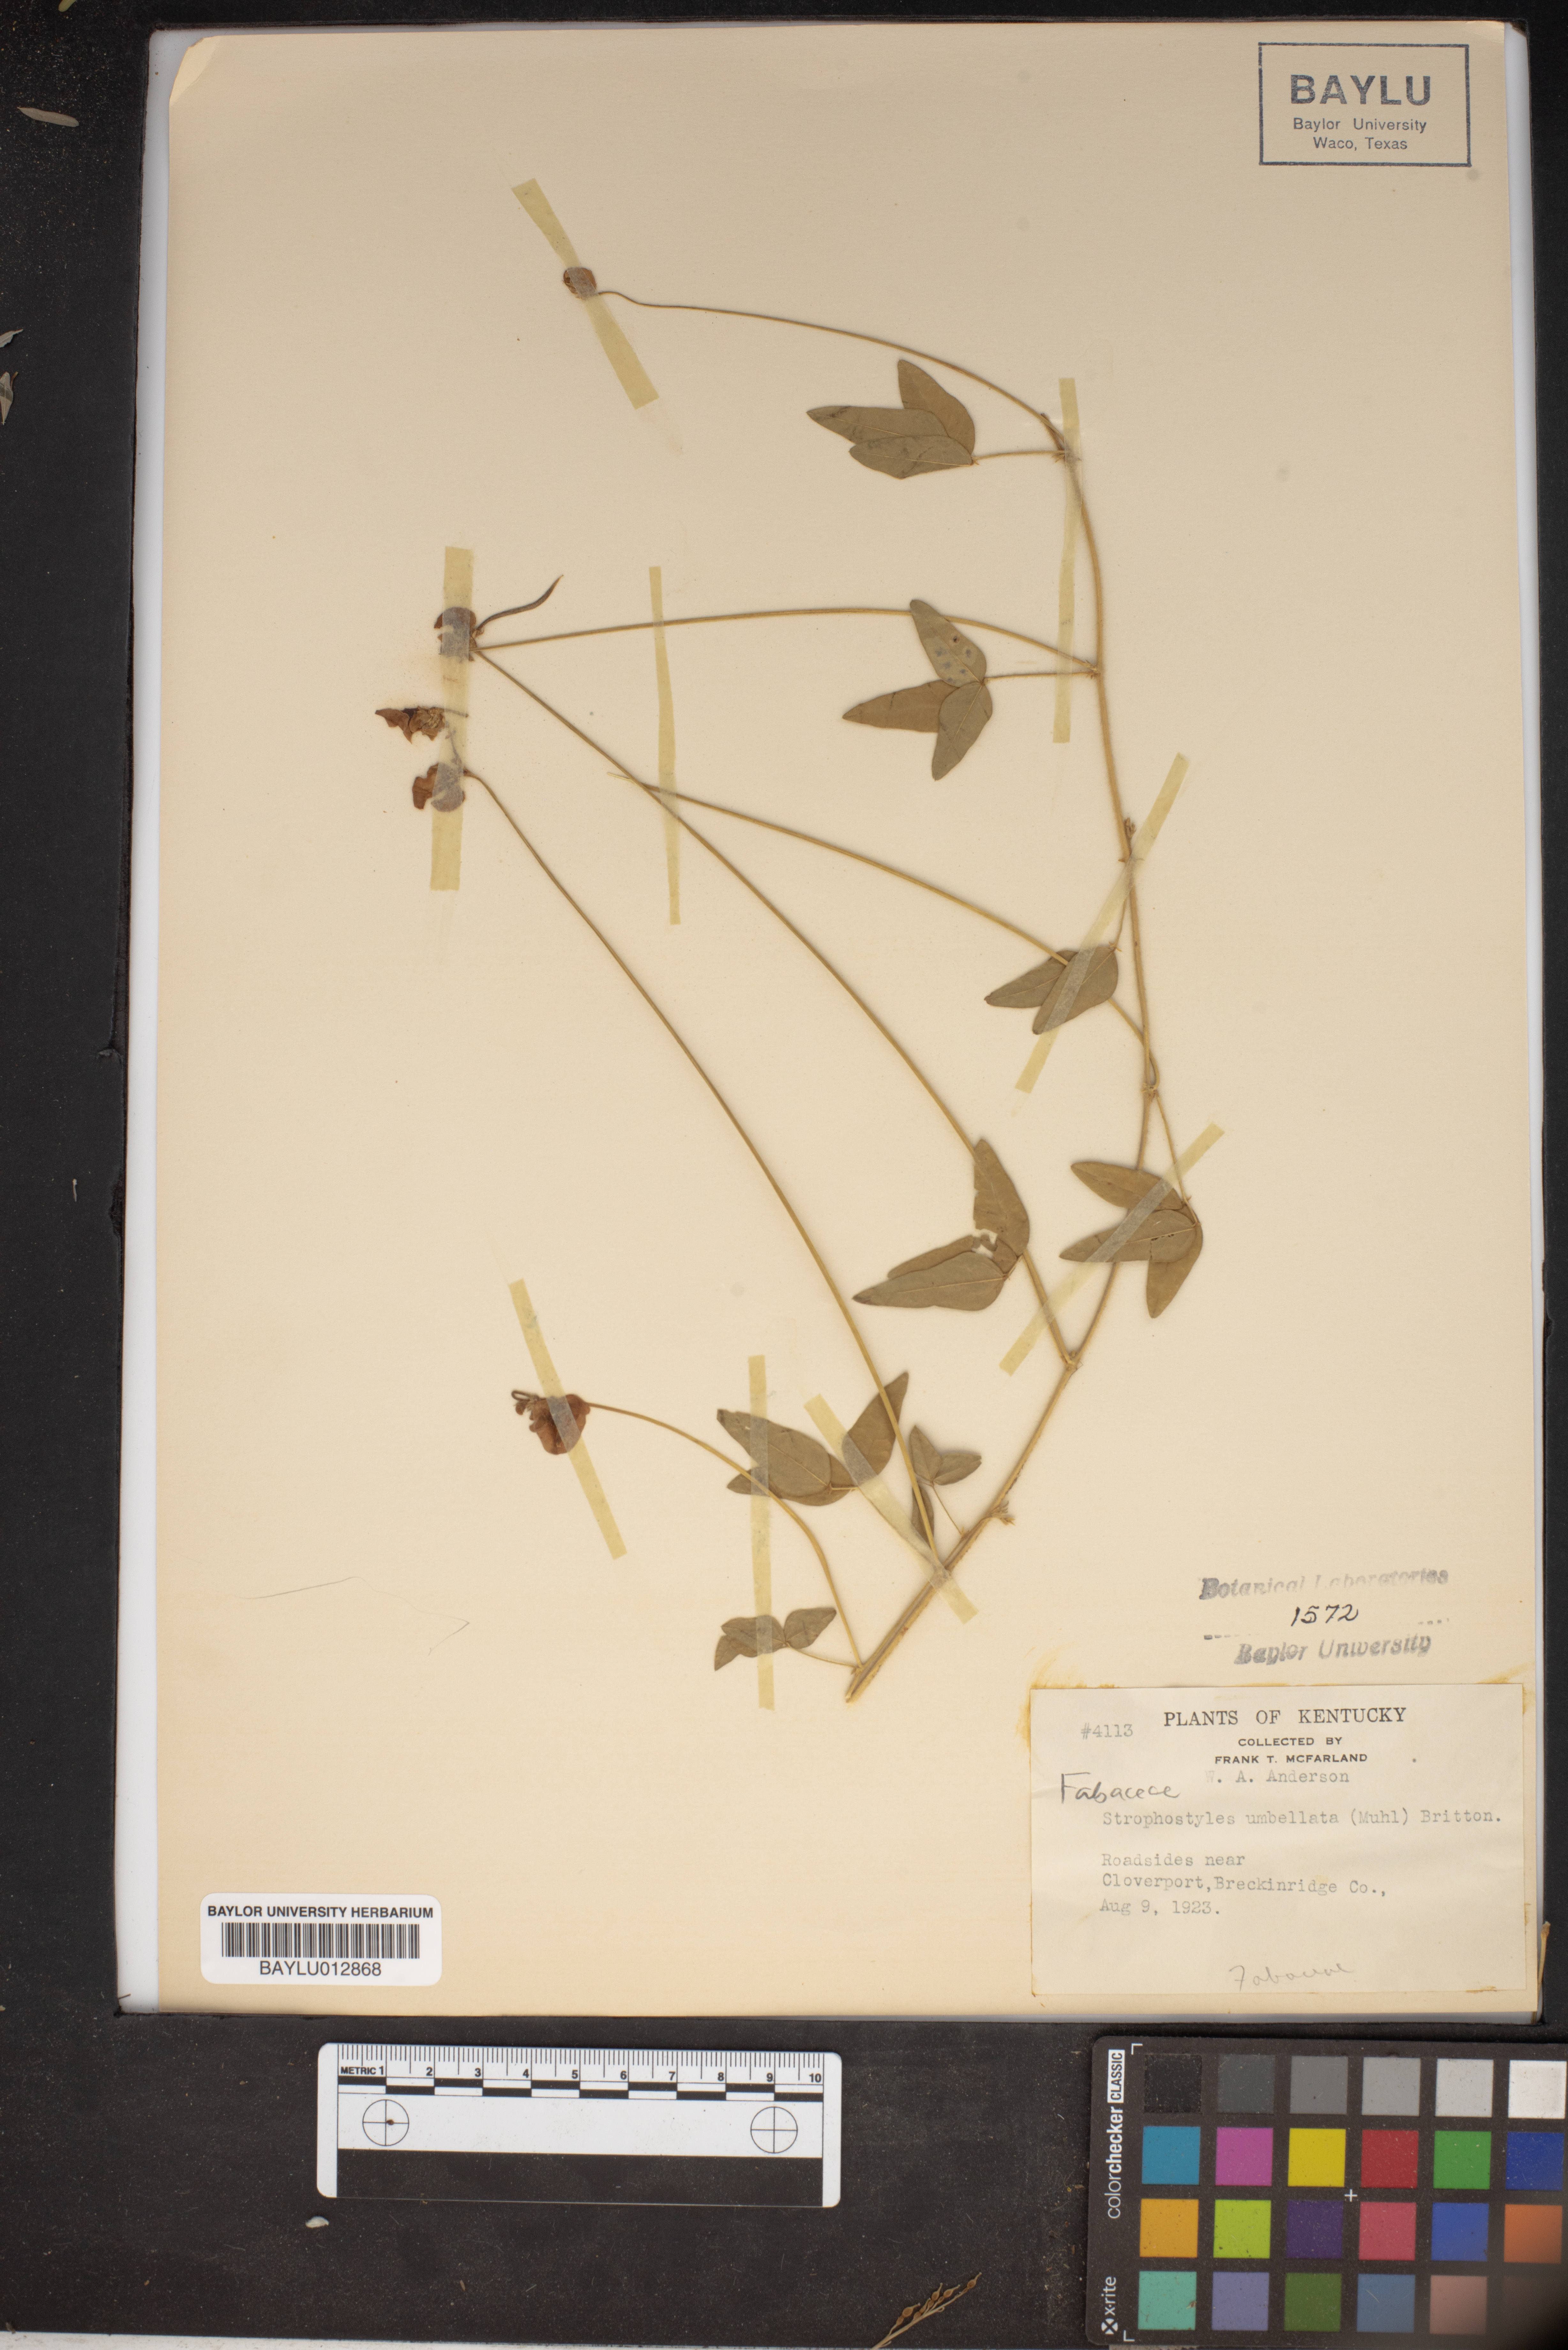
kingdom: Plantae
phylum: Tracheophyta
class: Magnoliopsida
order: Fabales
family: Fabaceae
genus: Strophostyles
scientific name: Strophostyles umbellata
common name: Perennial wild bean
